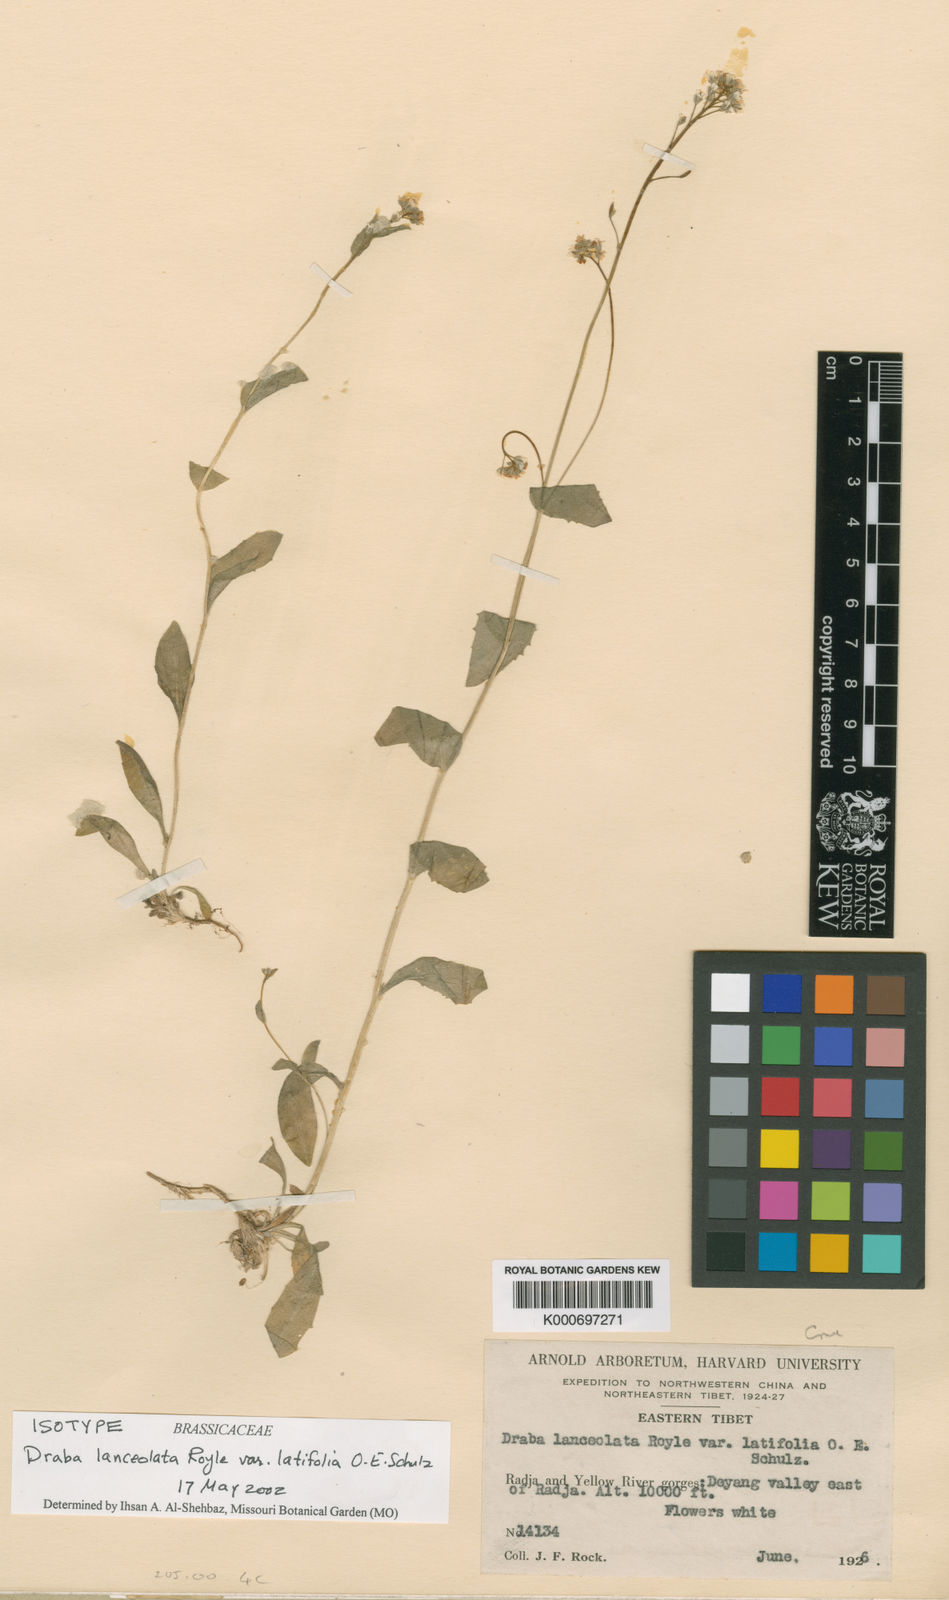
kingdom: Plantae
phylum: Tracheophyta
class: Magnoliopsida
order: Brassicales
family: Brassicaceae
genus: Draba
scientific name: Draba ladyginii
